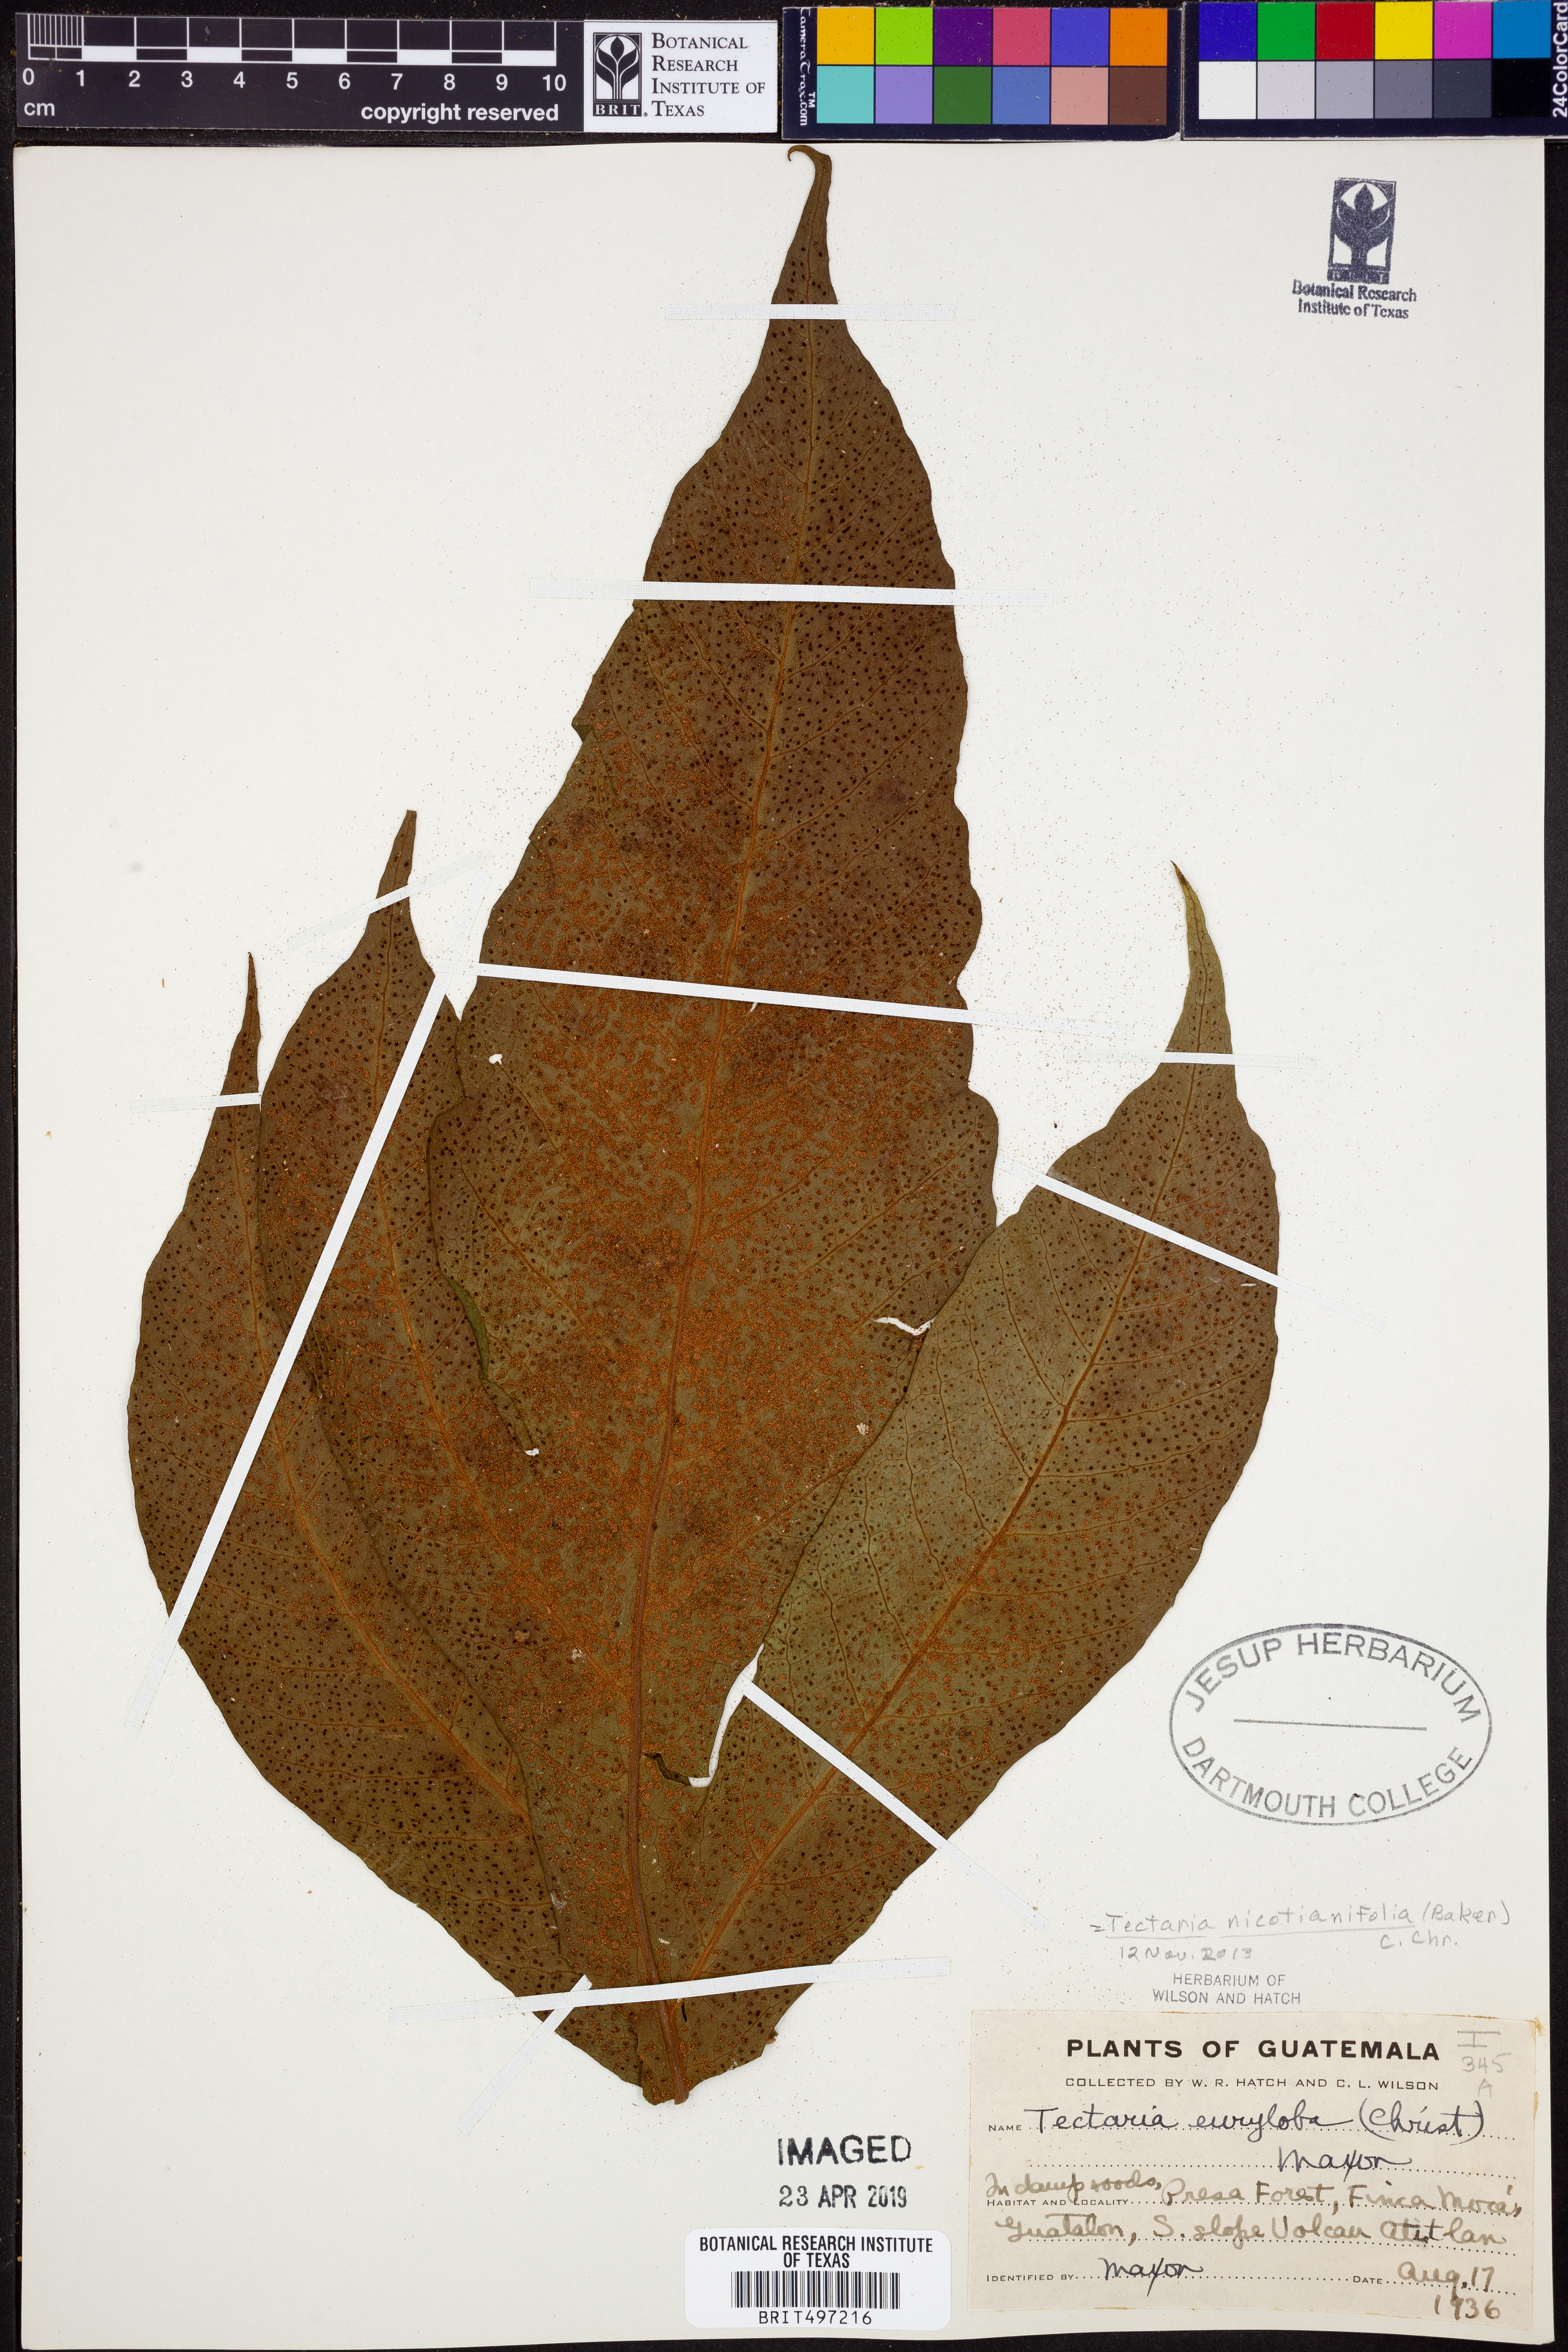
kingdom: Plantae
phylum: Tracheophyta
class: Polypodiopsida
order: Polypodiales
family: Tectariaceae
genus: Hypoderris
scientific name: Hypoderris nicotianifolia
